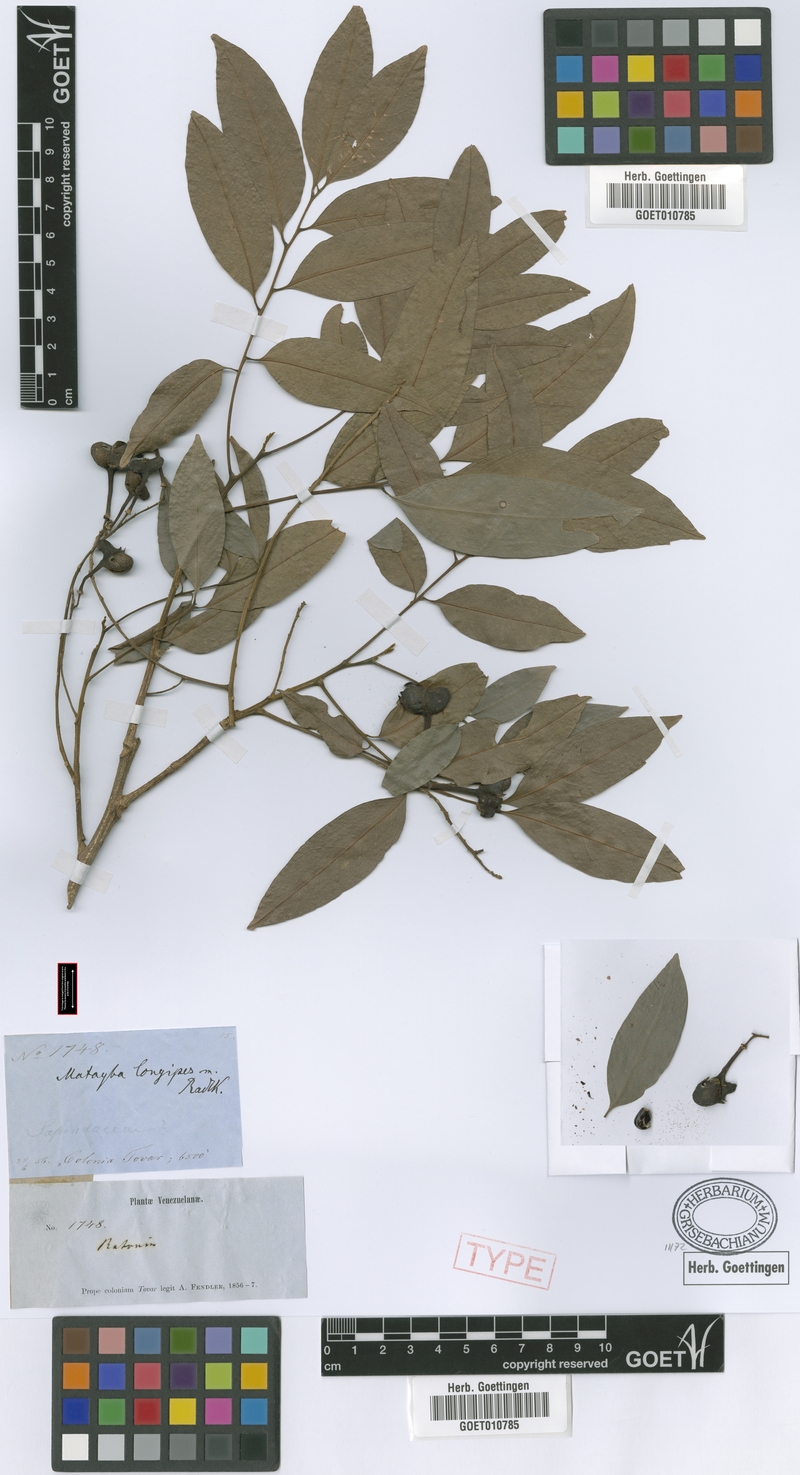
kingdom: Plantae
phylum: Tracheophyta
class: Magnoliopsida
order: Sapindales
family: Sapindaceae
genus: Matayba
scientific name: Matayba longipes
